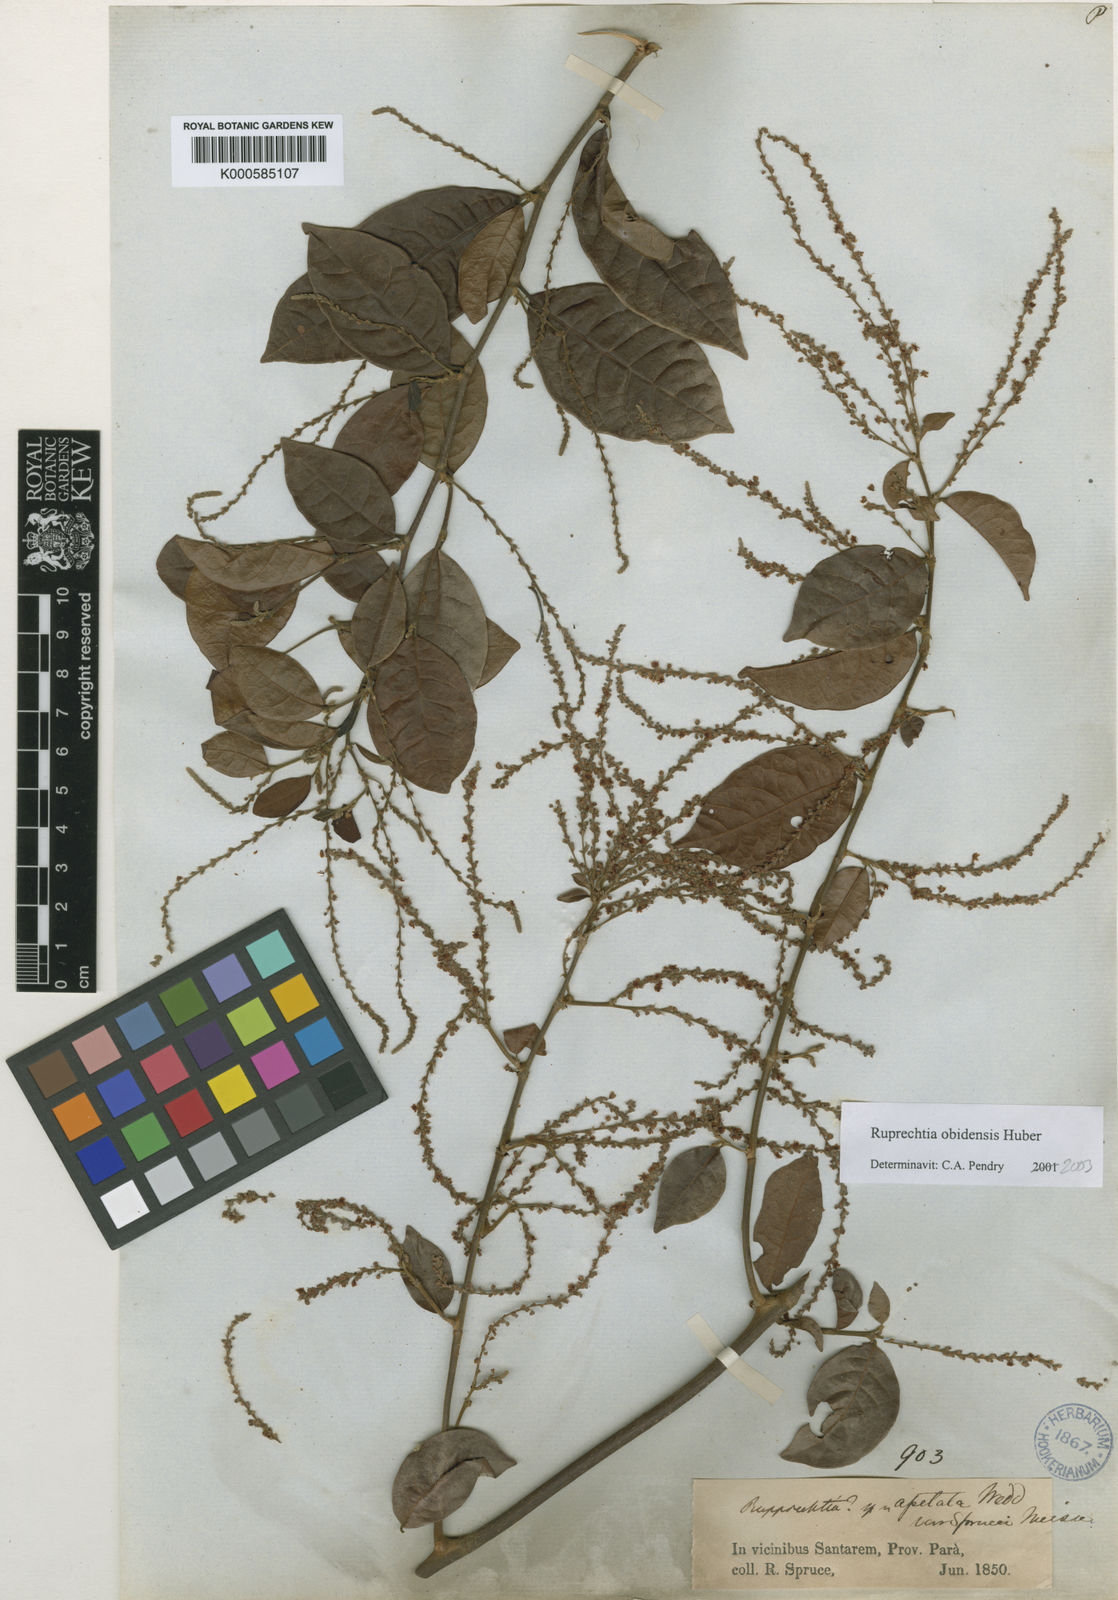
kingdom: Plantae
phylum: Tracheophyta
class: Magnoliopsida
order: Caryophyllales
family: Polygonaceae
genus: Ruprechtia
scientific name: Ruprechtia scandens
